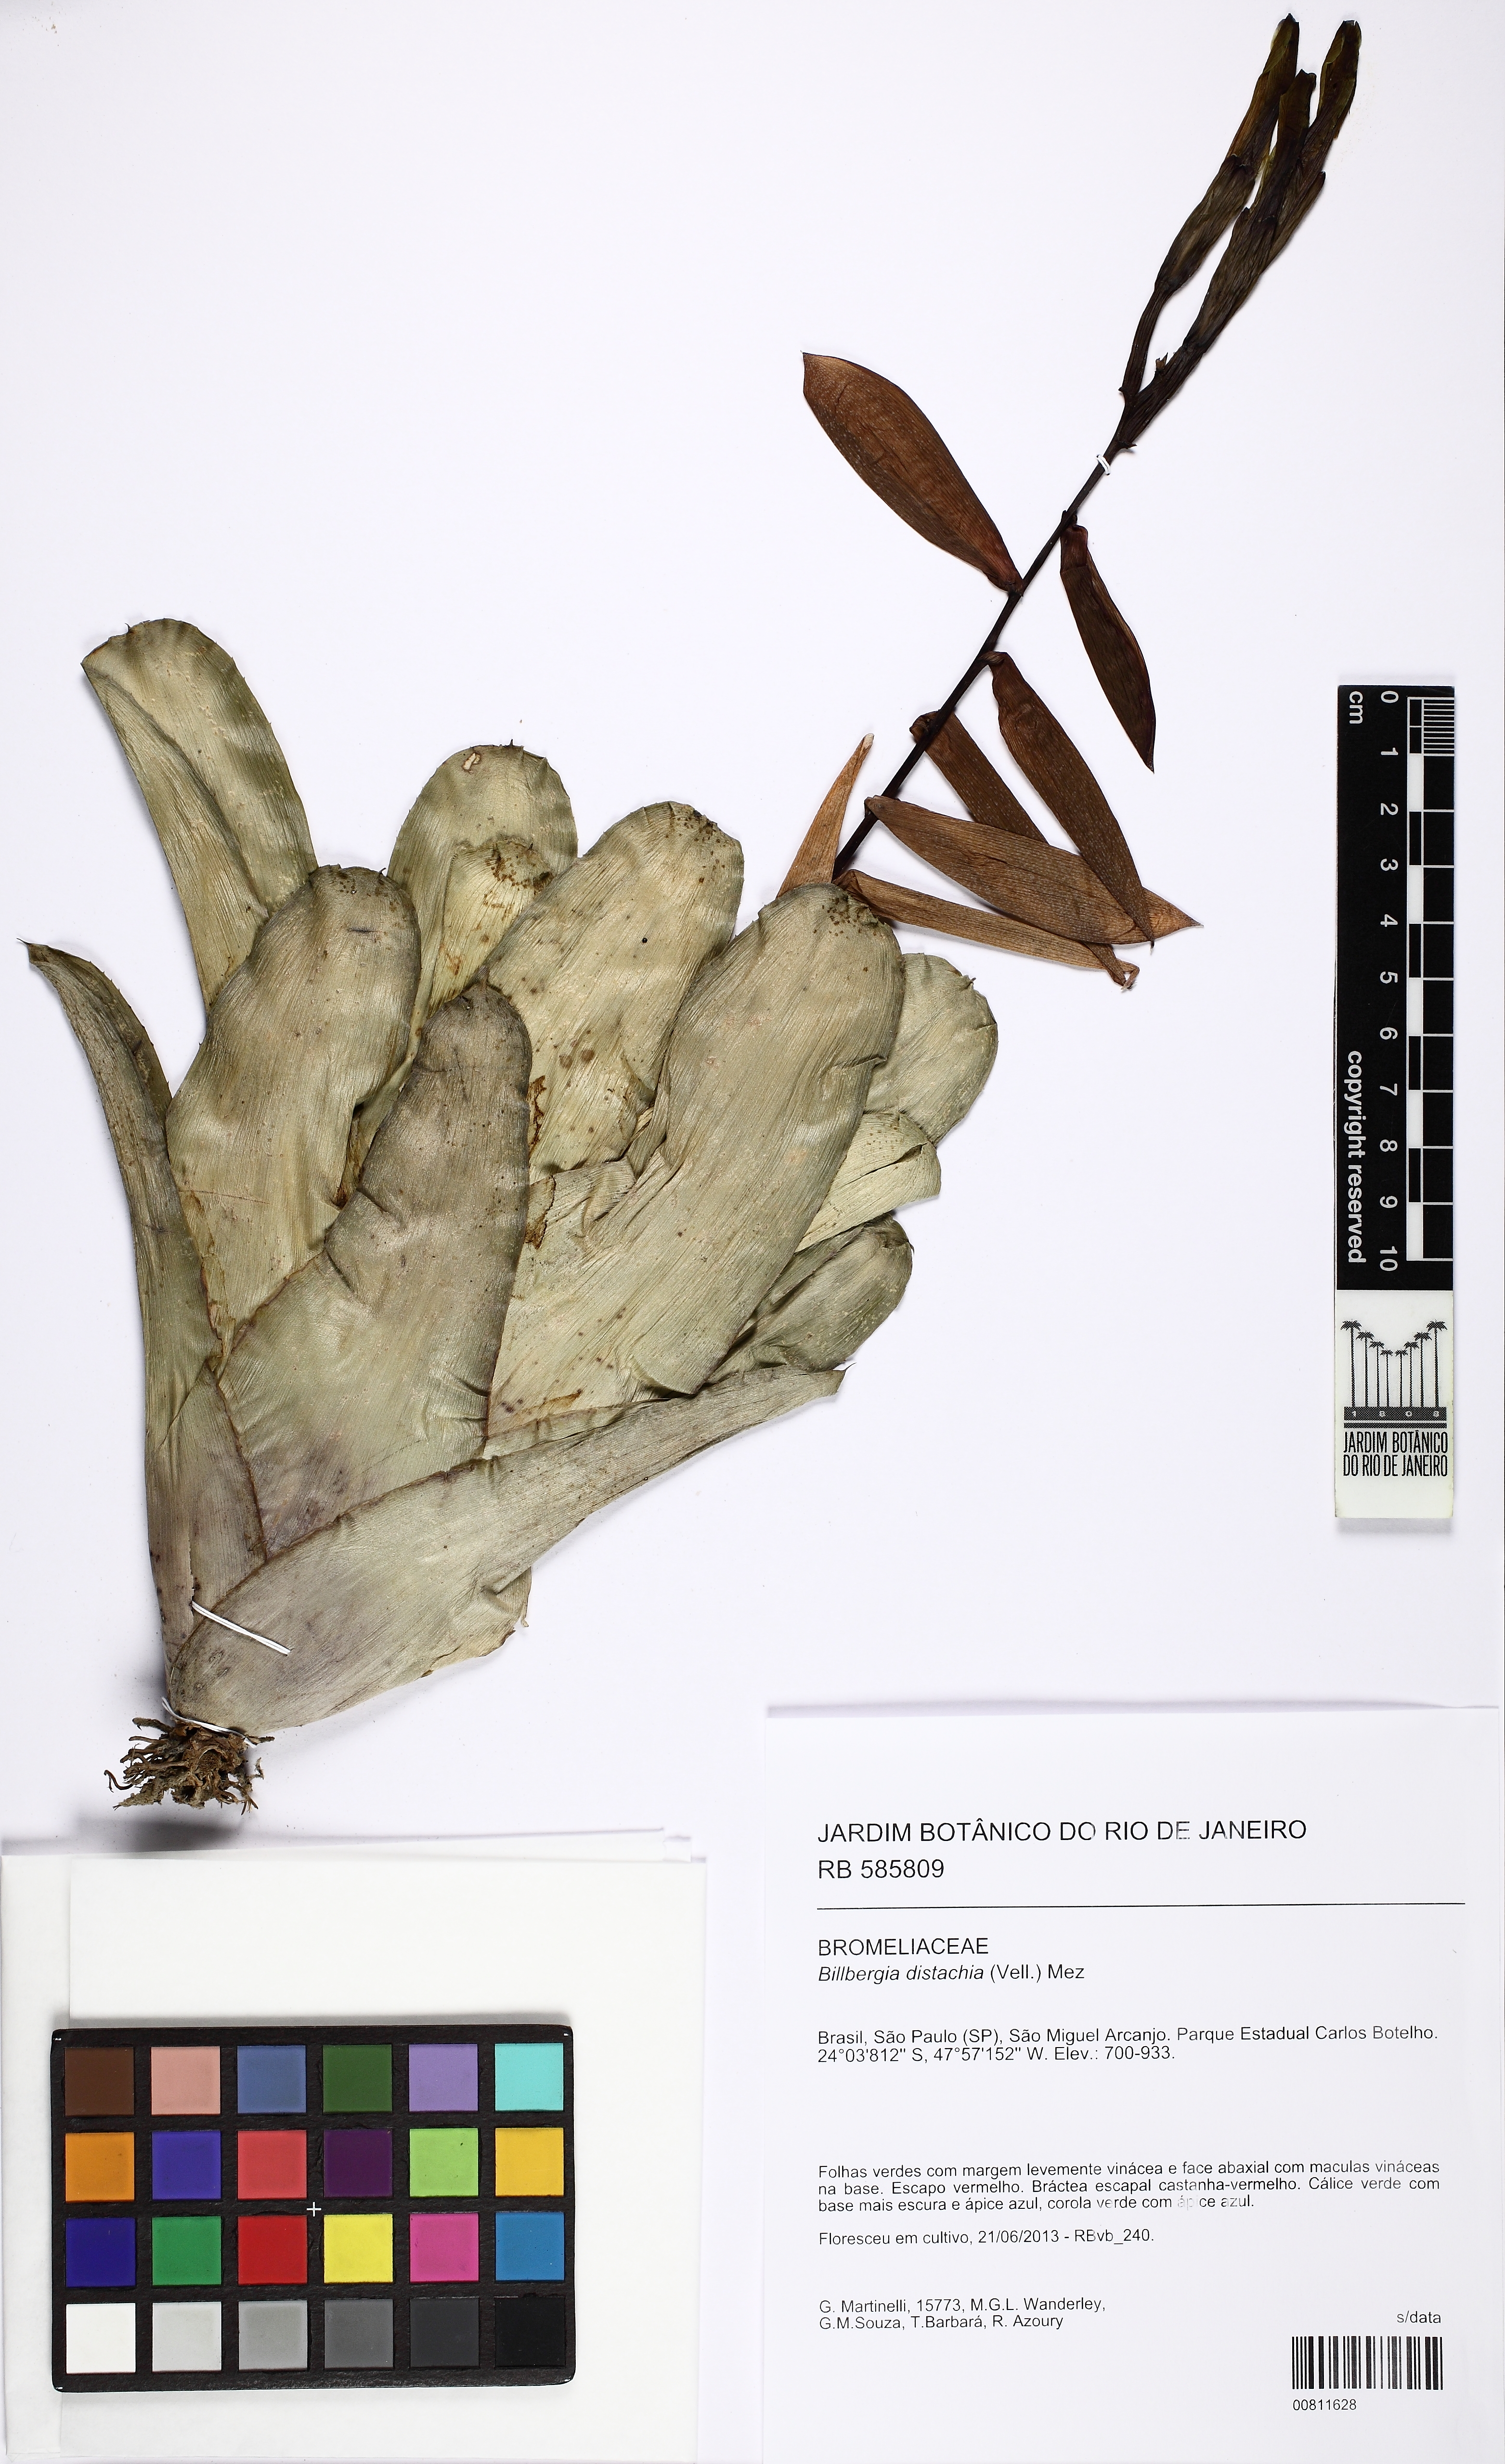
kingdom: Plantae
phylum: Tracheophyta
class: Liliopsida
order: Poales
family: Bromeliaceae
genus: Billbergia
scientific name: Billbergia distachia
